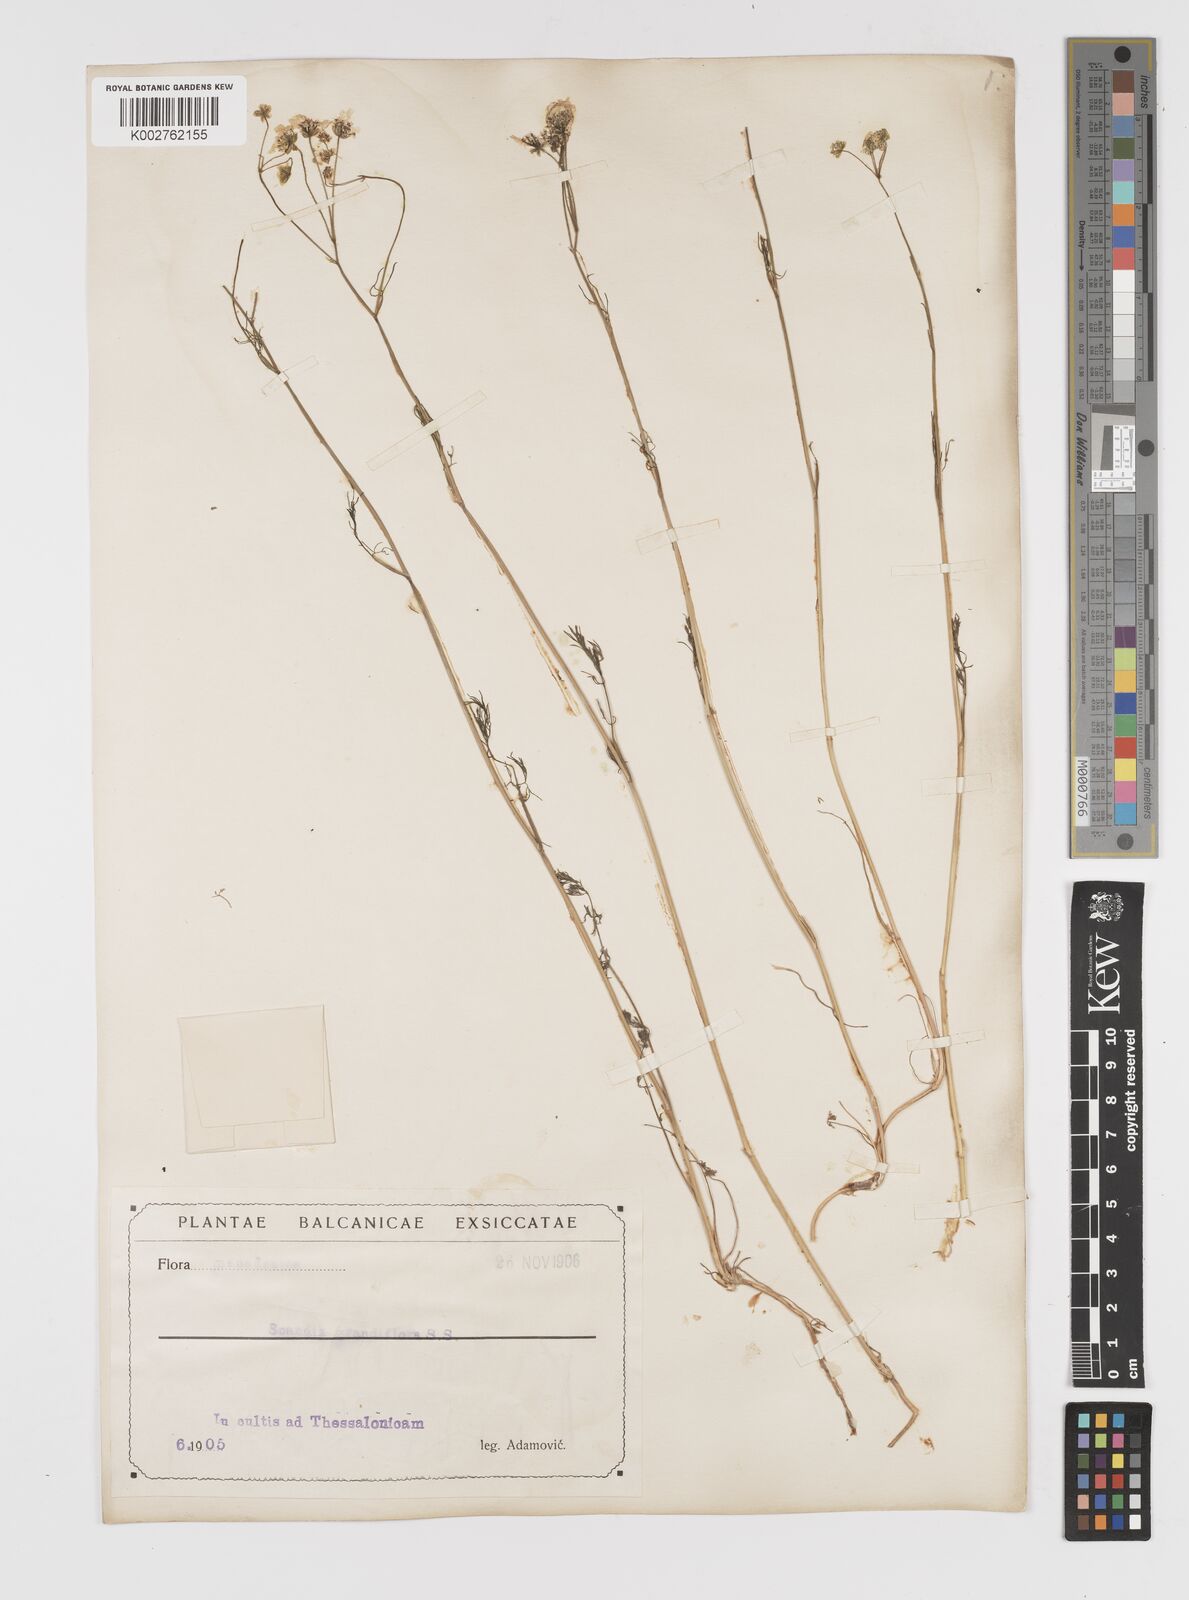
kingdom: Plantae
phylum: Tracheophyta
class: Magnoliopsida
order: Apiales
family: Apiaceae
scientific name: Apiaceae
